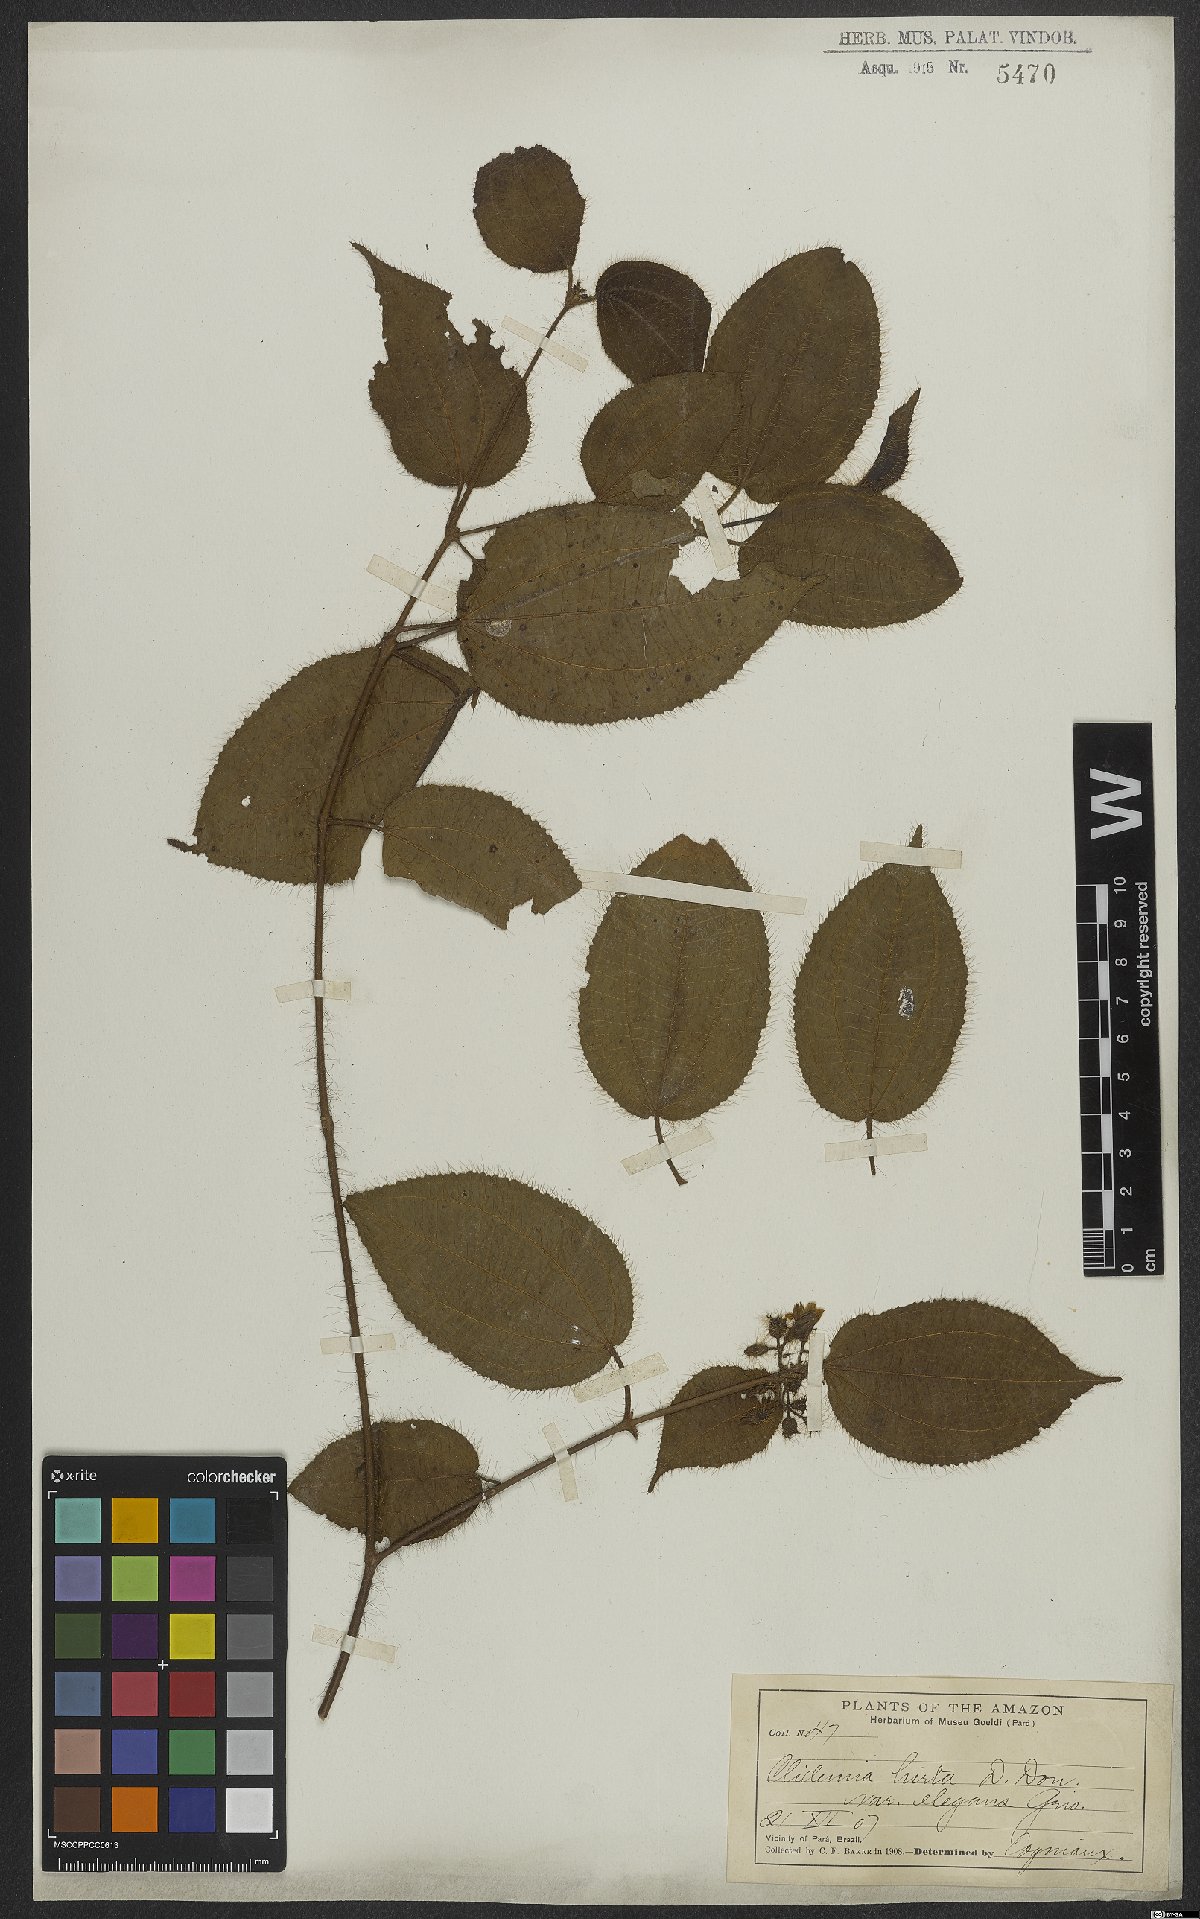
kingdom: Plantae
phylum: Tracheophyta
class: Magnoliopsida
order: Myrtales
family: Melastomataceae
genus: Miconia
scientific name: Miconia crenata
